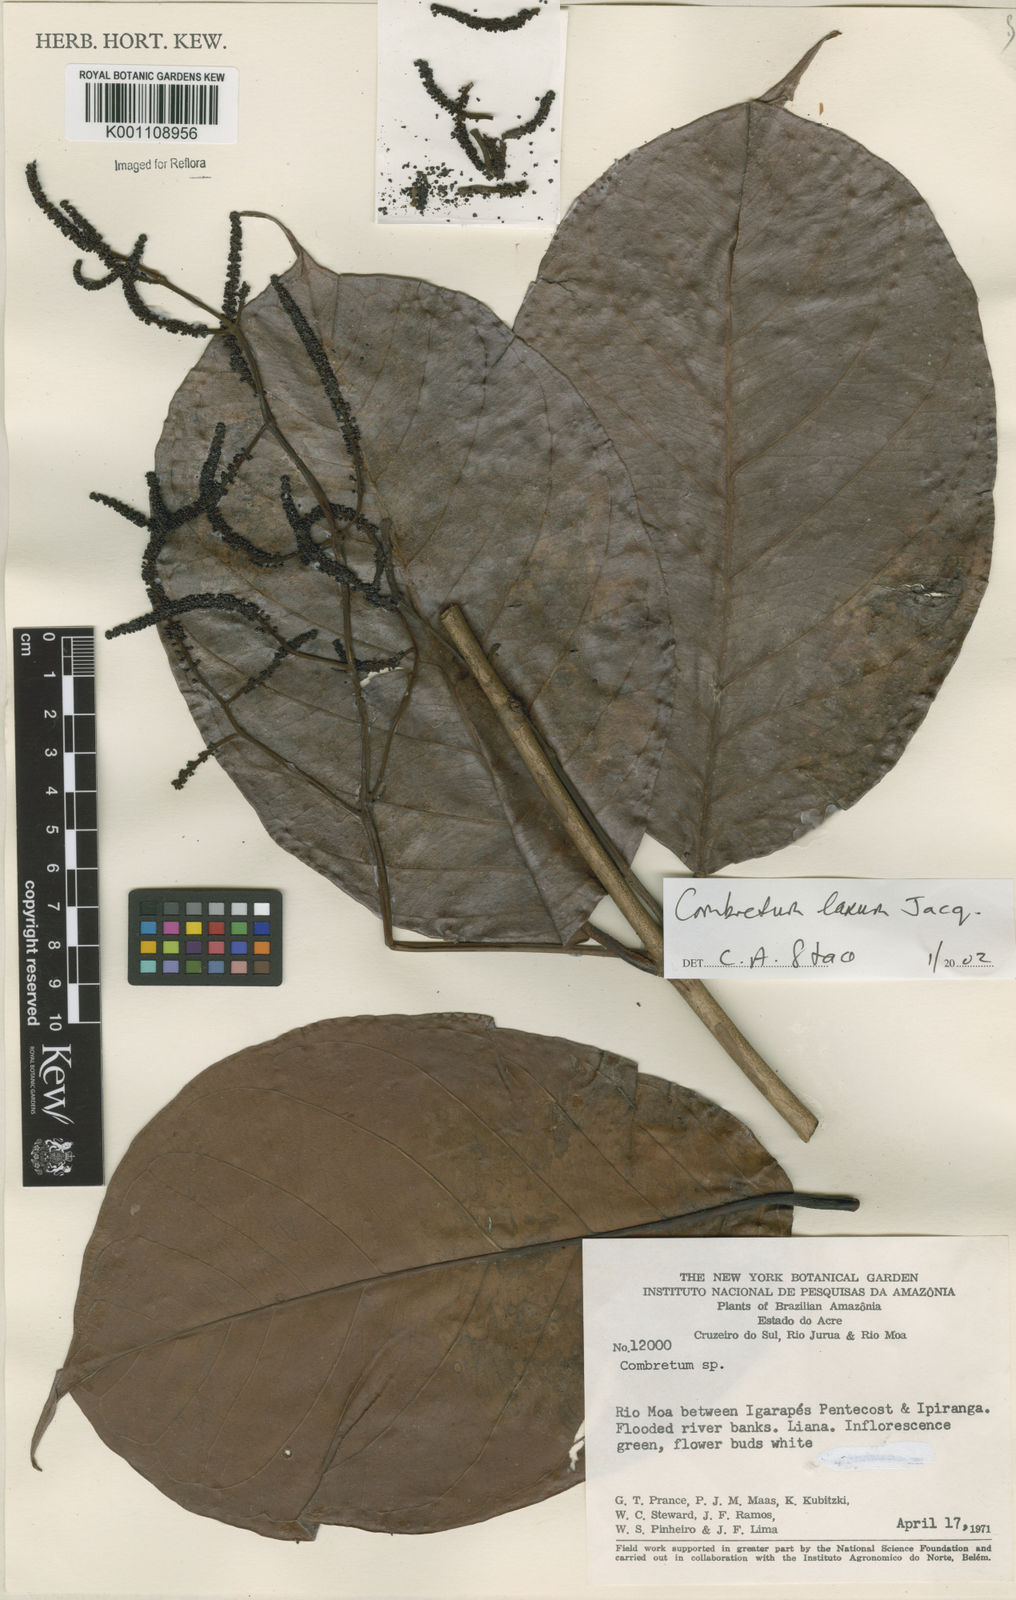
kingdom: Plantae
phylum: Tracheophyta
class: Magnoliopsida
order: Myrtales
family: Combretaceae
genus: Combretum
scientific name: Combretum laxum
